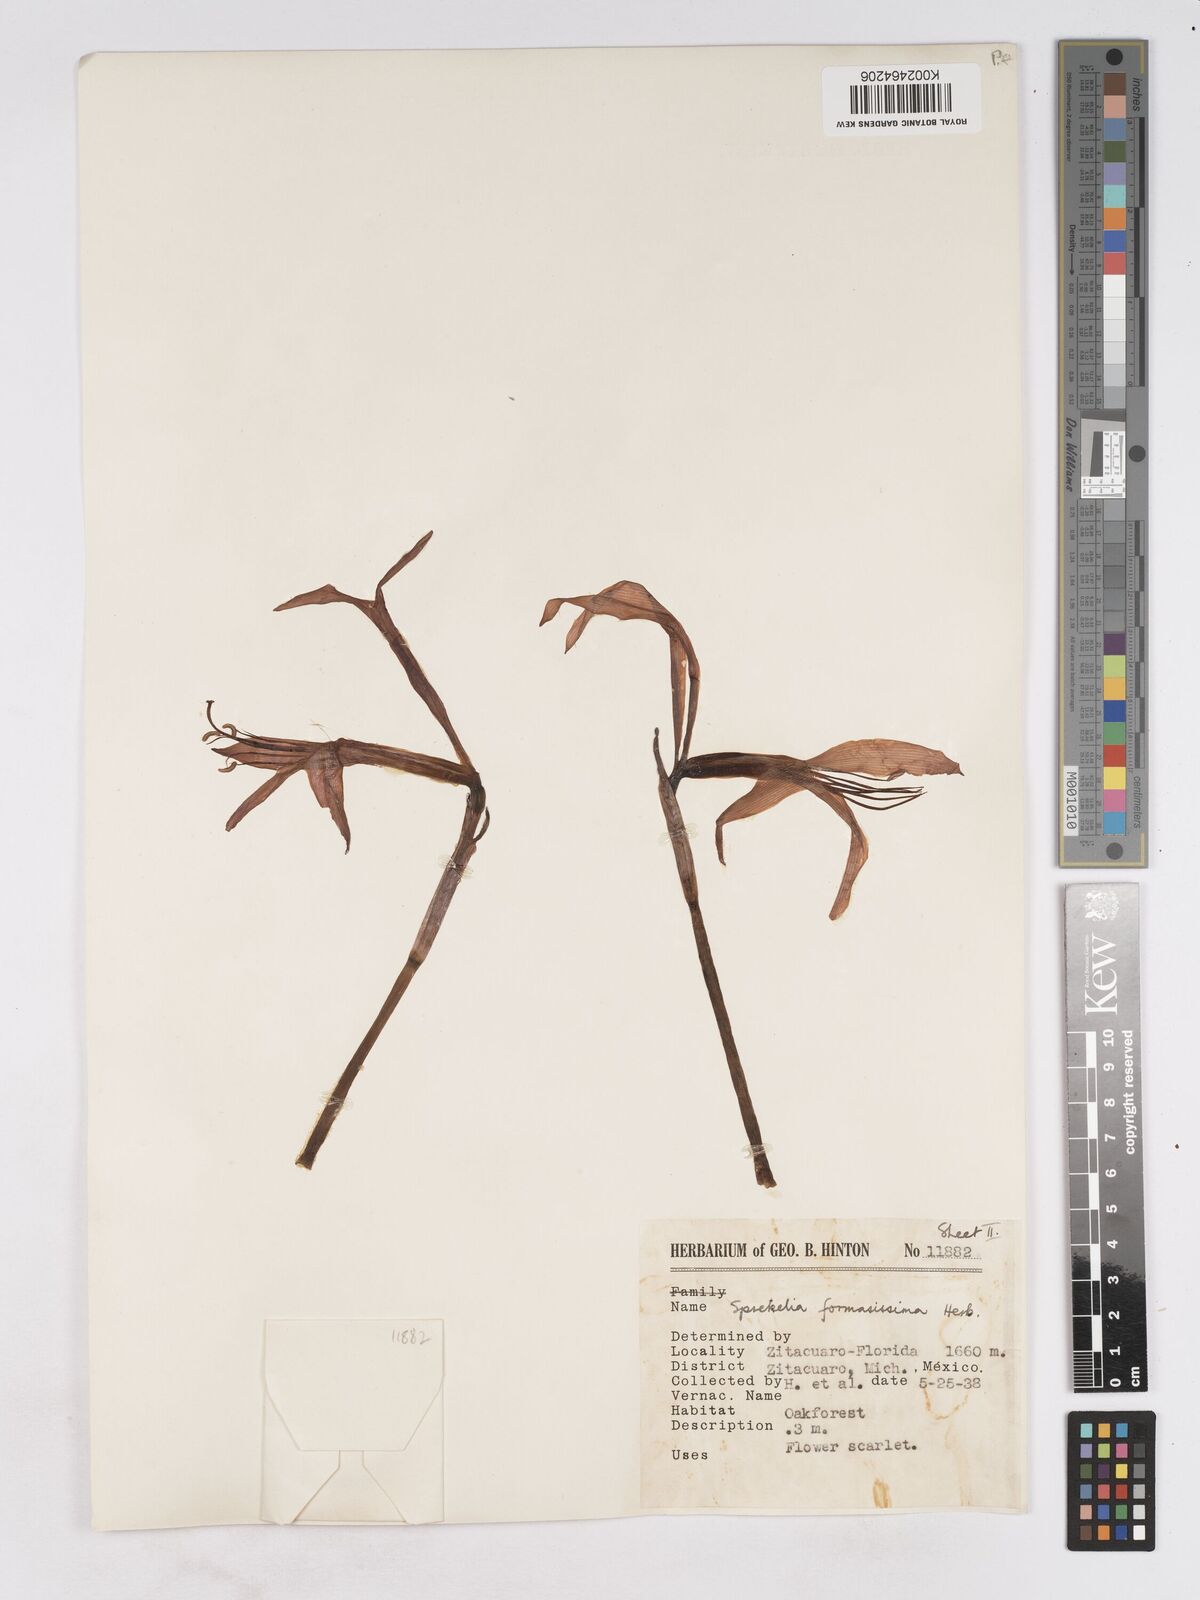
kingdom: Plantae
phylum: Tracheophyta
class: Liliopsida
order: Asparagales
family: Amaryllidaceae
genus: Sprekelia
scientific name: Sprekelia formosissima
